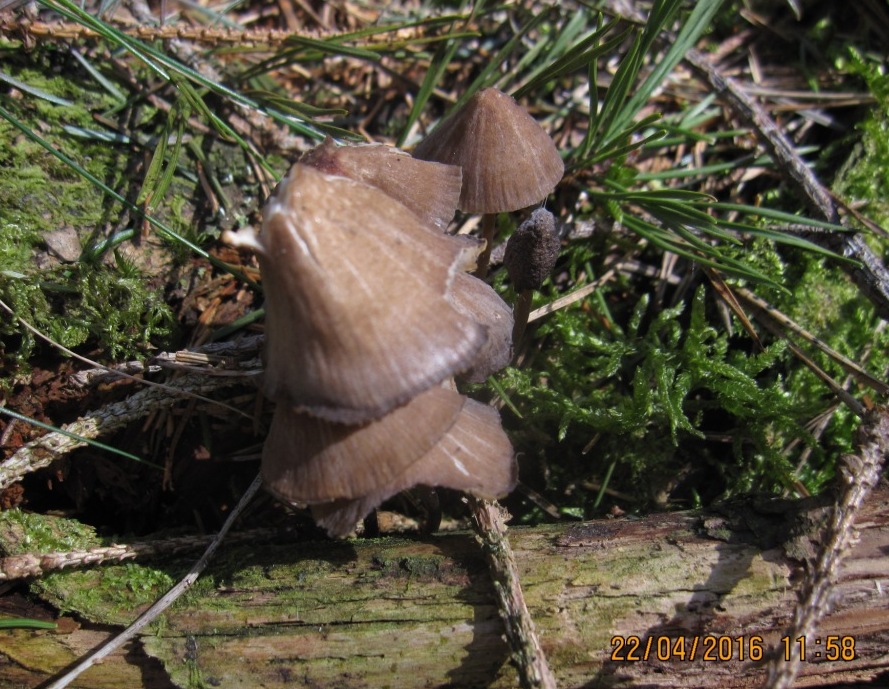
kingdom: Fungi
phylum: Basidiomycota
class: Agaricomycetes
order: Agaricales
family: Mycenaceae
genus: Mycena
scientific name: Mycena silvae-nigrae
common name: tidlig huesvamp
